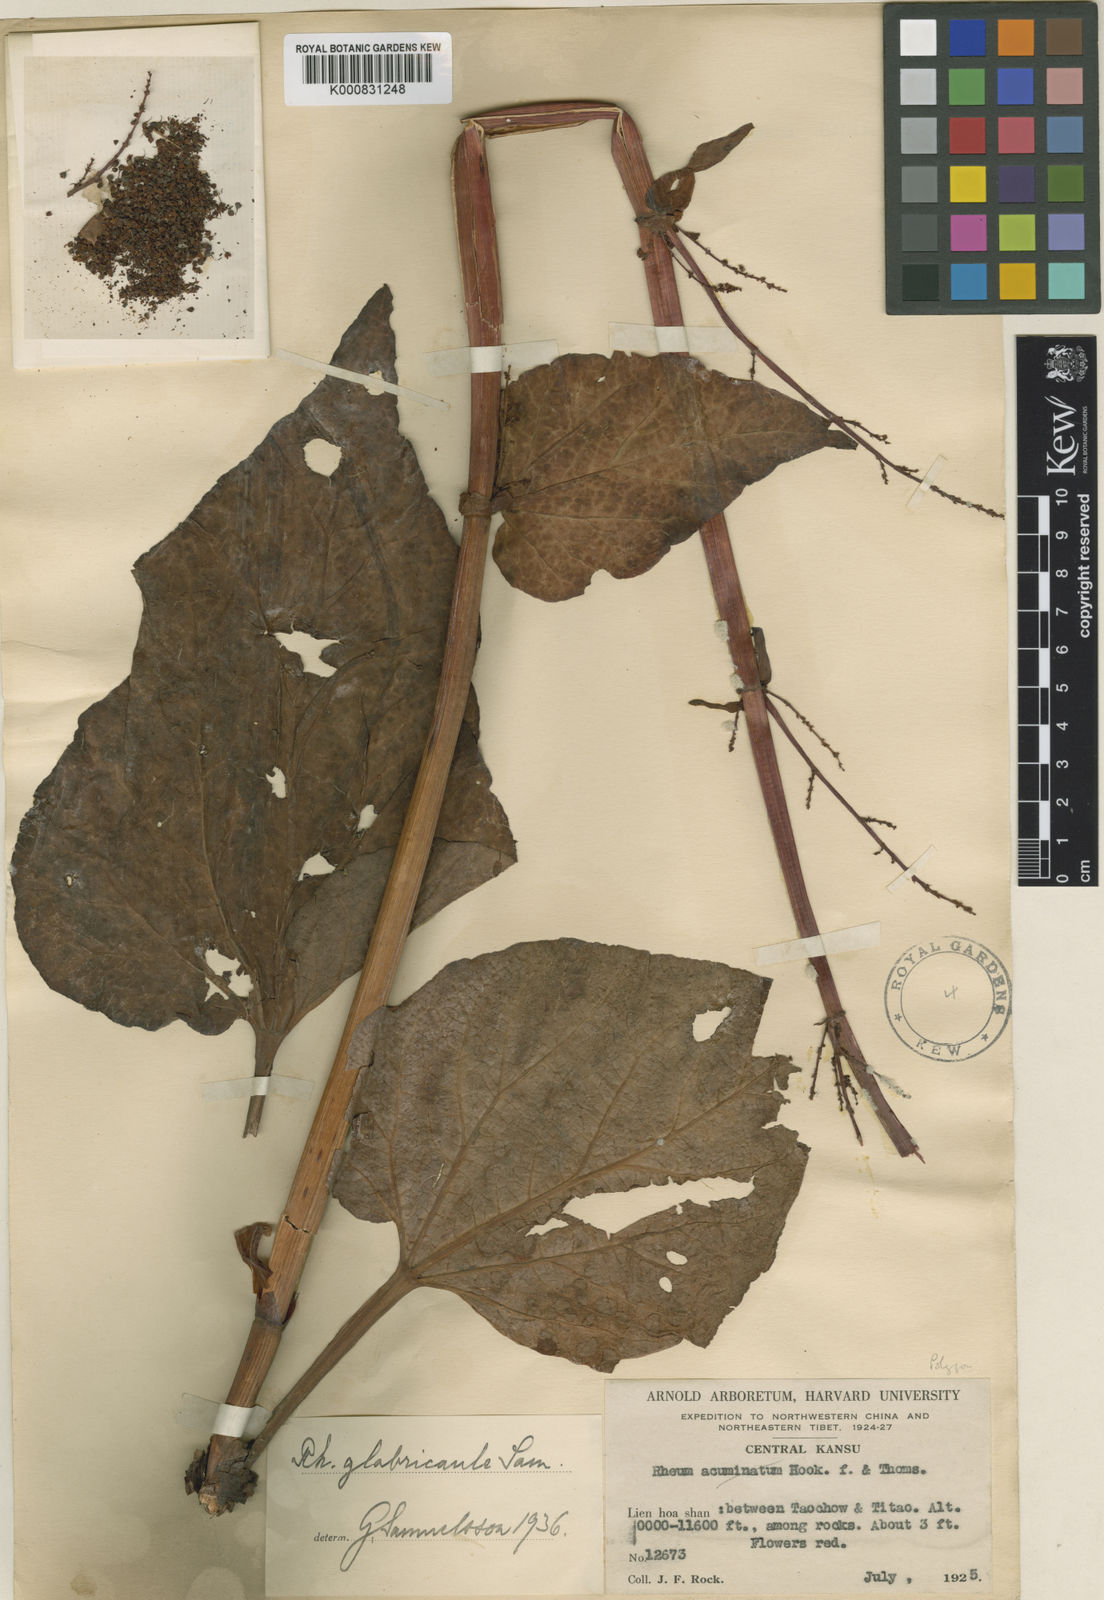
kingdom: Plantae
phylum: Tracheophyta
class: Magnoliopsida
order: Caryophyllales
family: Polygonaceae
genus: Rheum
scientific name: Rheum
